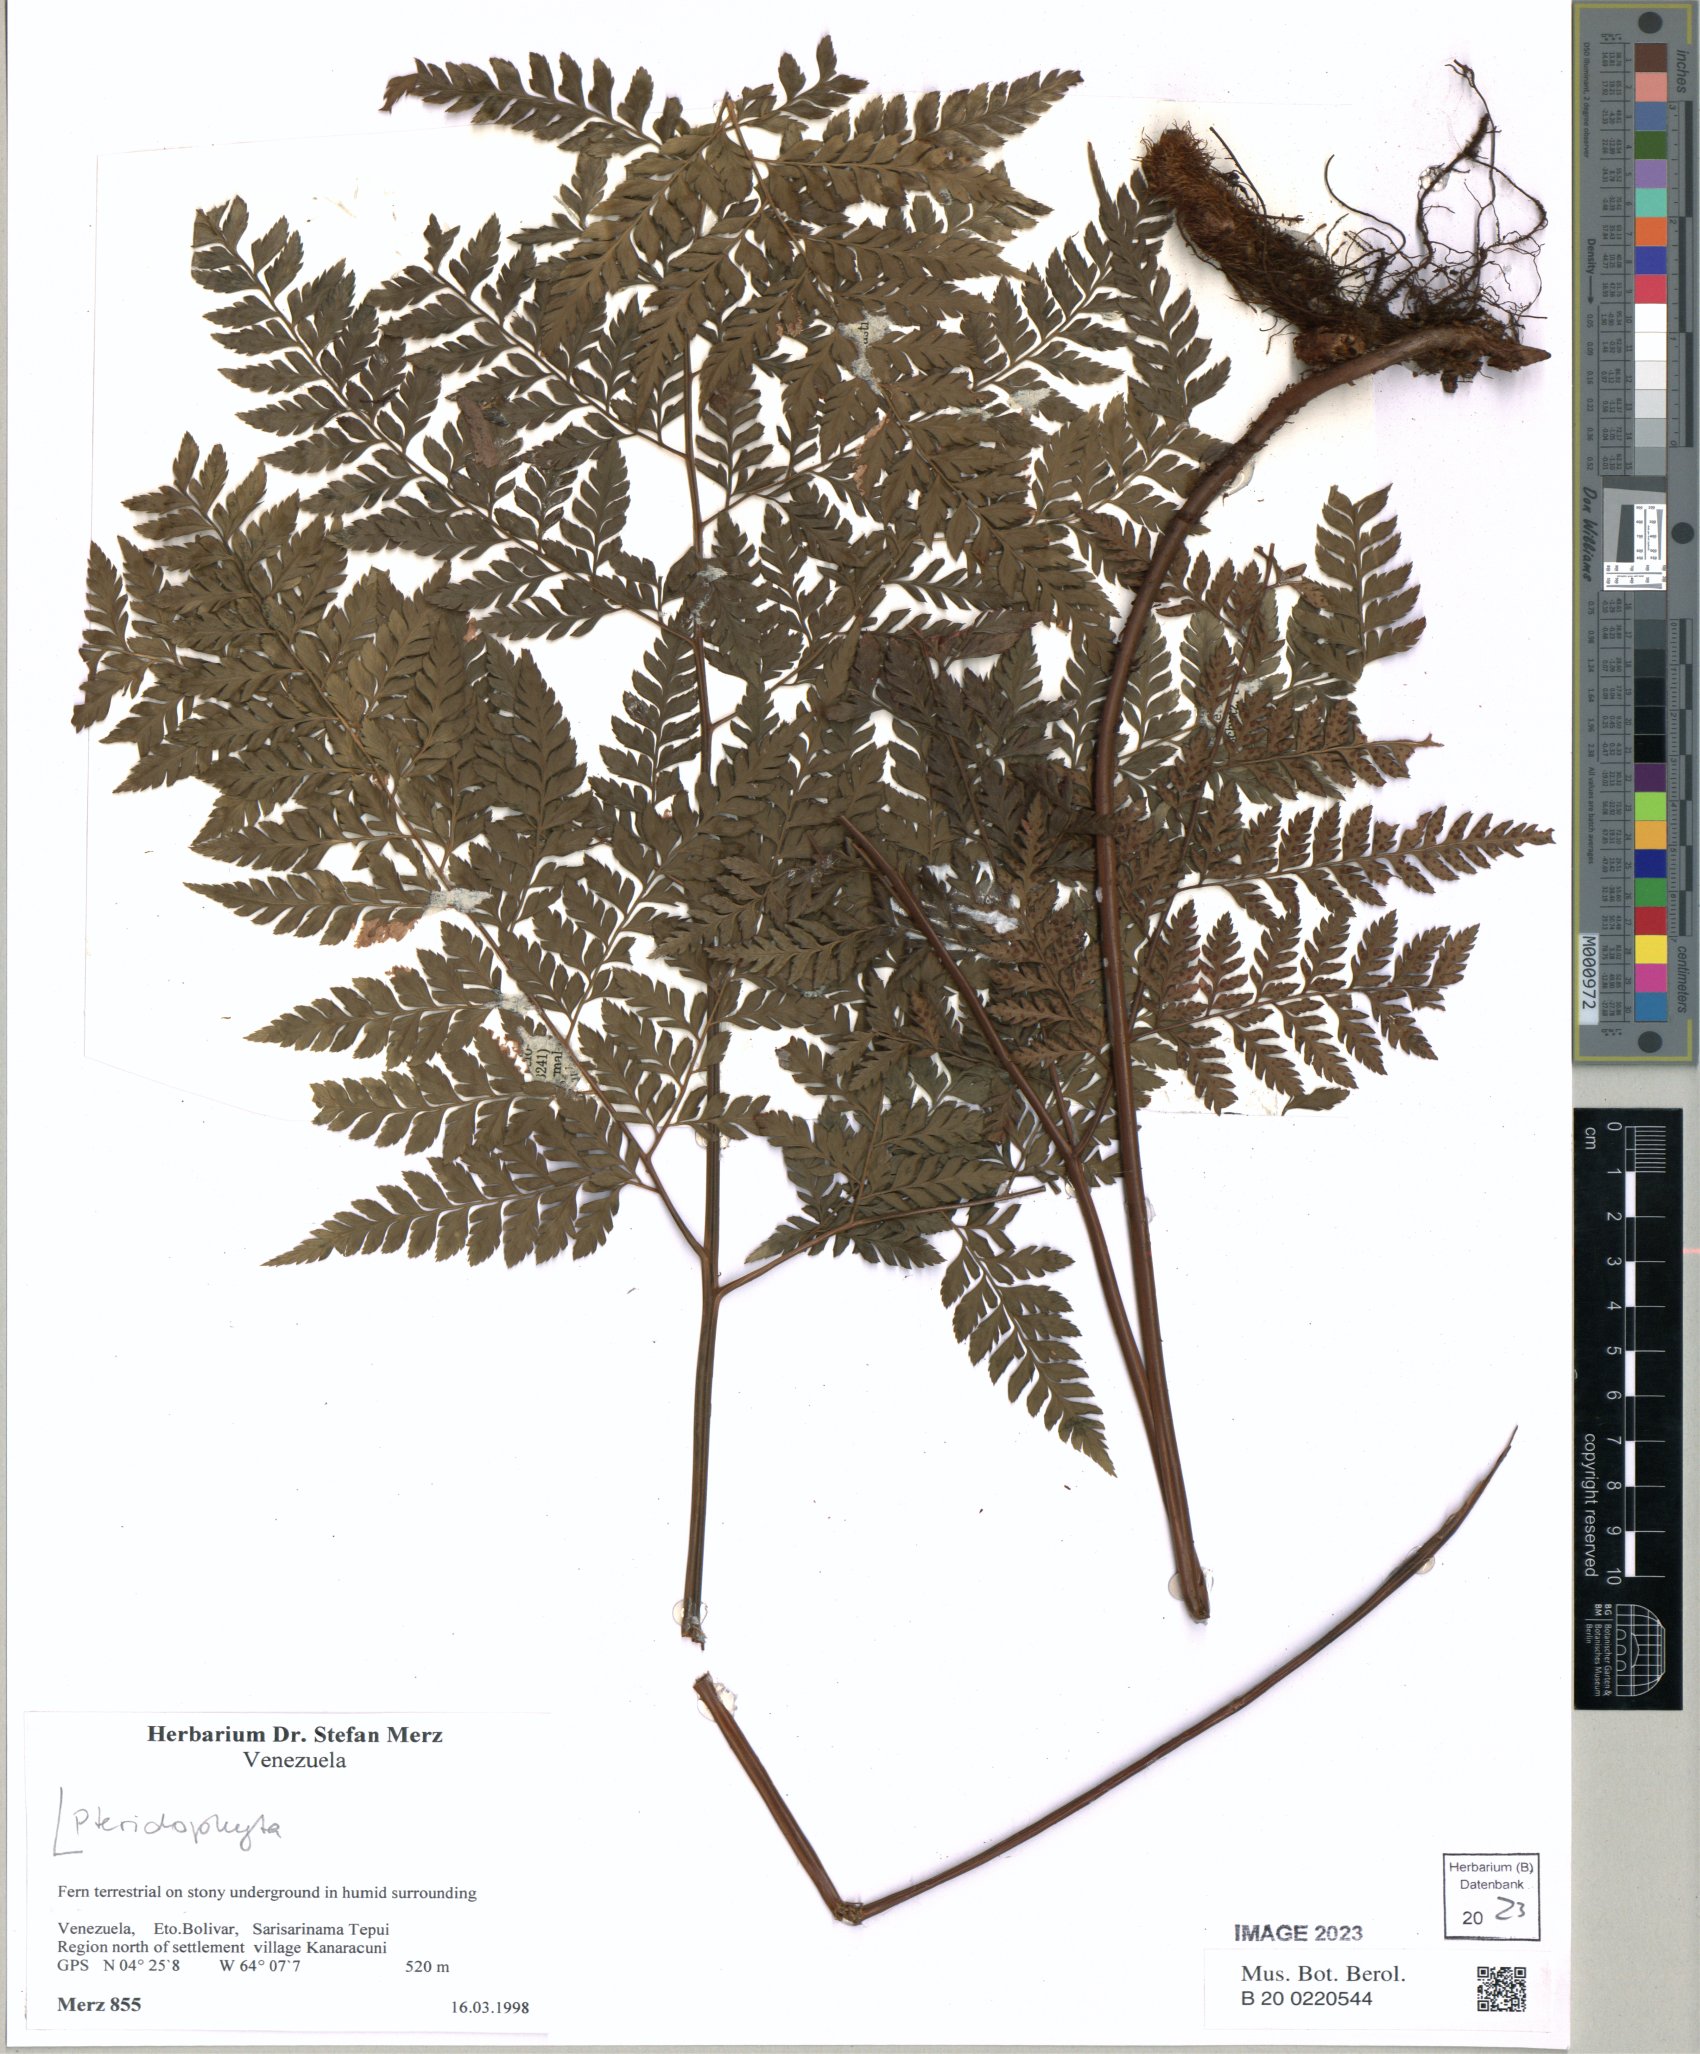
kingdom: Plantae
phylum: Tracheophyta
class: Polypodiopsida
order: Polypodiales
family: Dryopteridaceae
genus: Arachniodes
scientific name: Arachniodes
